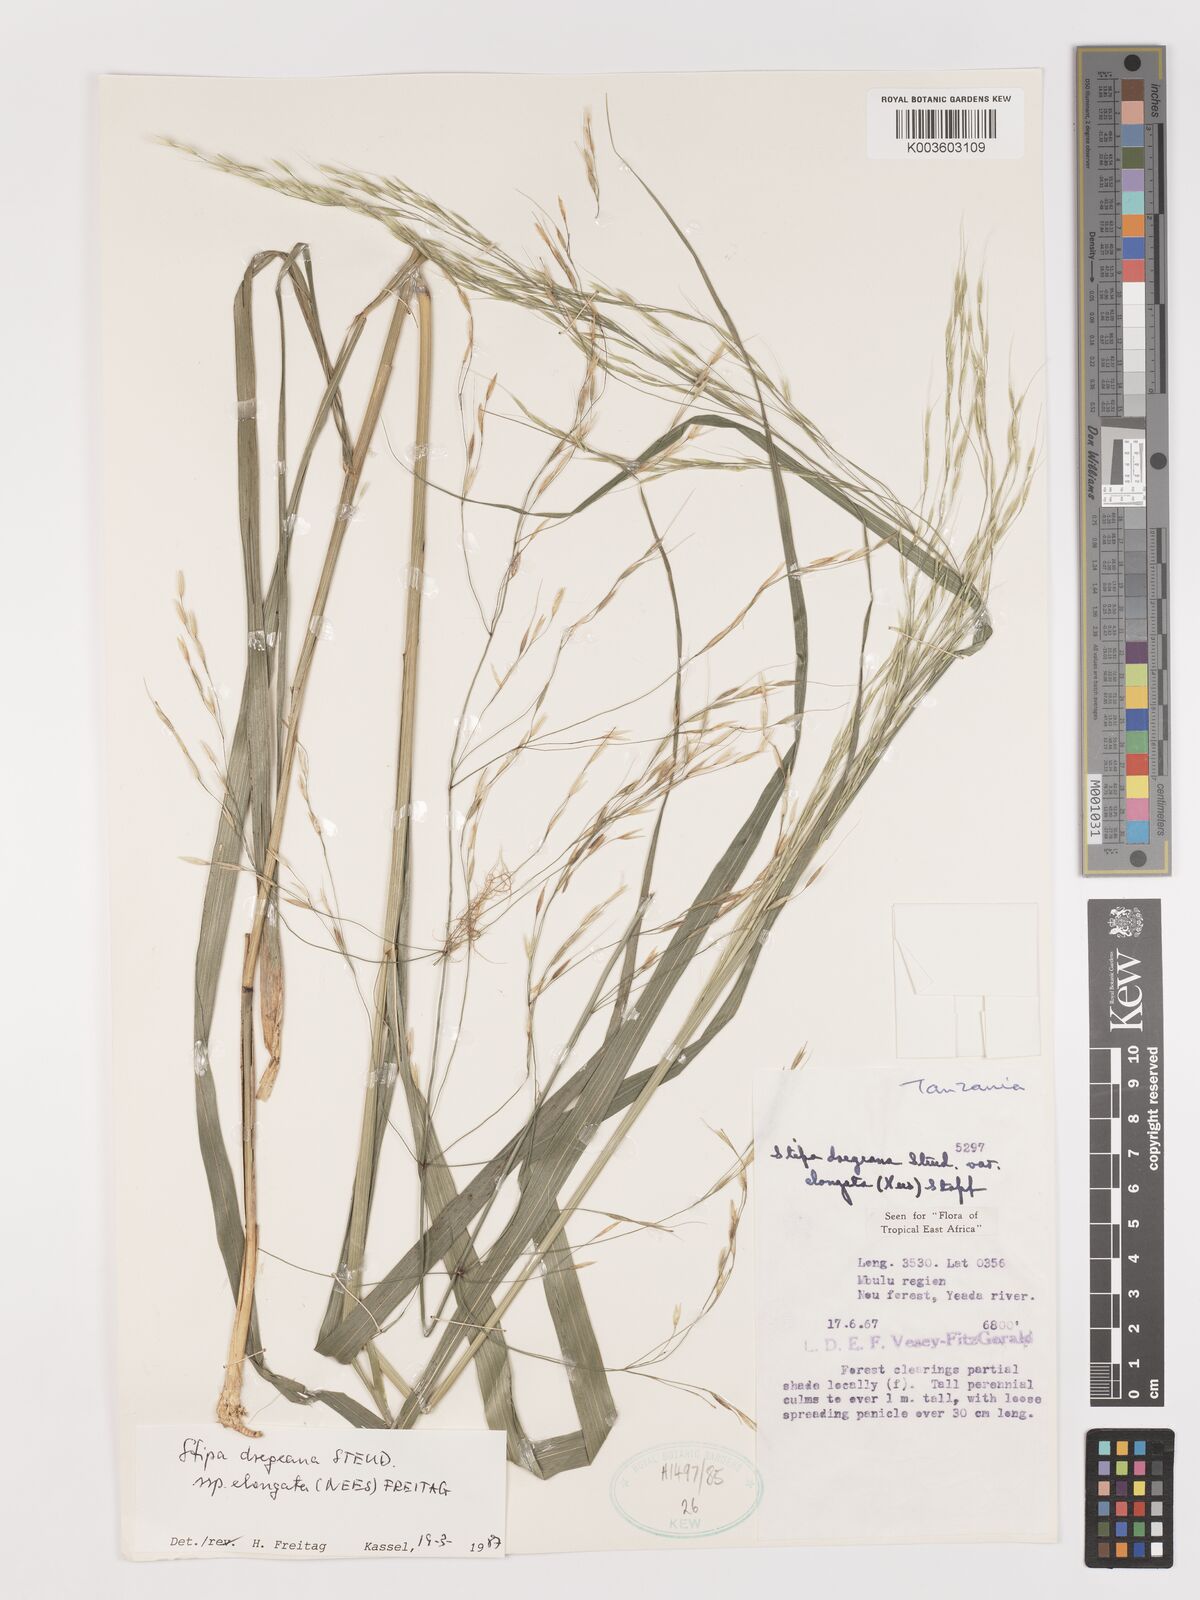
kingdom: Plantae
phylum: Tracheophyta
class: Liliopsida
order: Poales
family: Poaceae
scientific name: Poaceae
